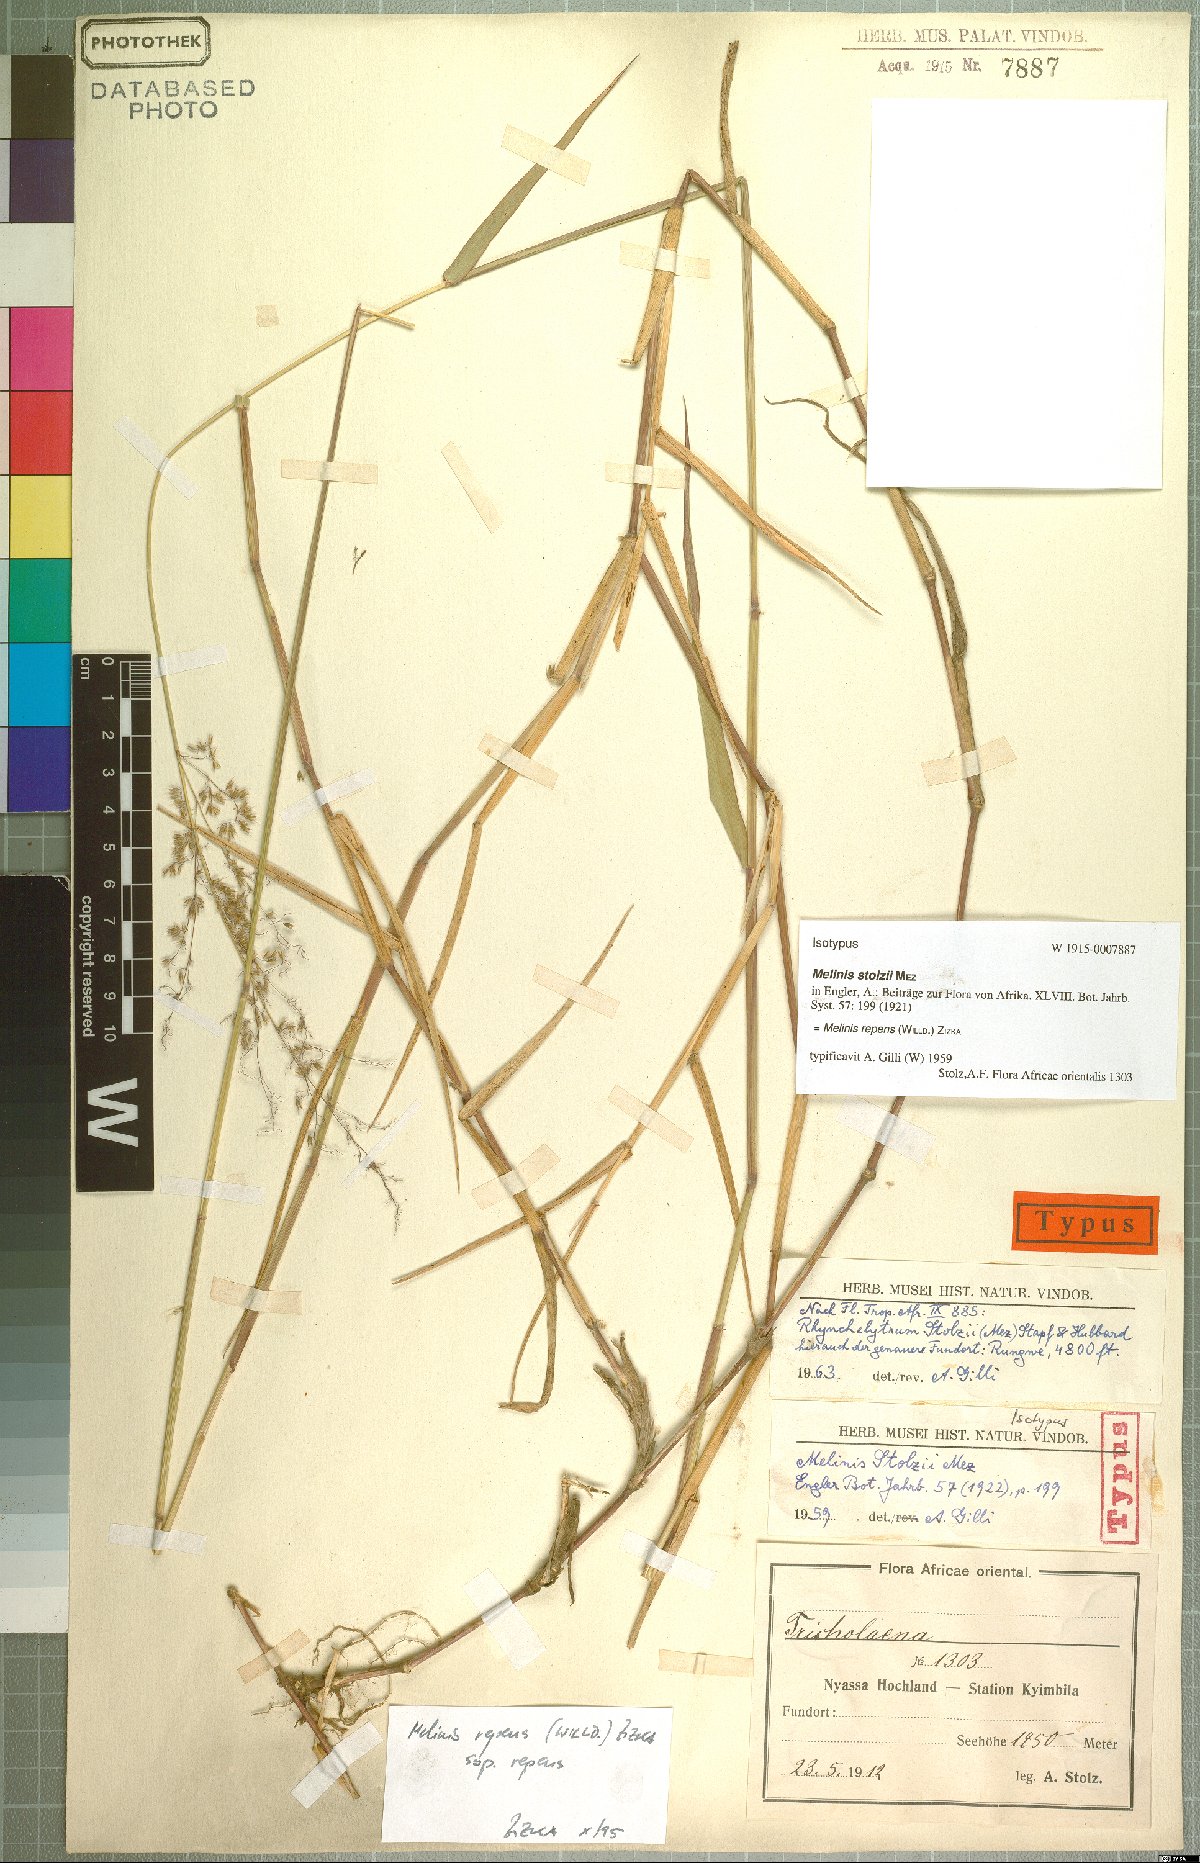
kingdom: Plantae
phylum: Tracheophyta
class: Liliopsida
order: Poales
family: Poaceae
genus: Melinis
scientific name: Melinis repens
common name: Rose natal grass
